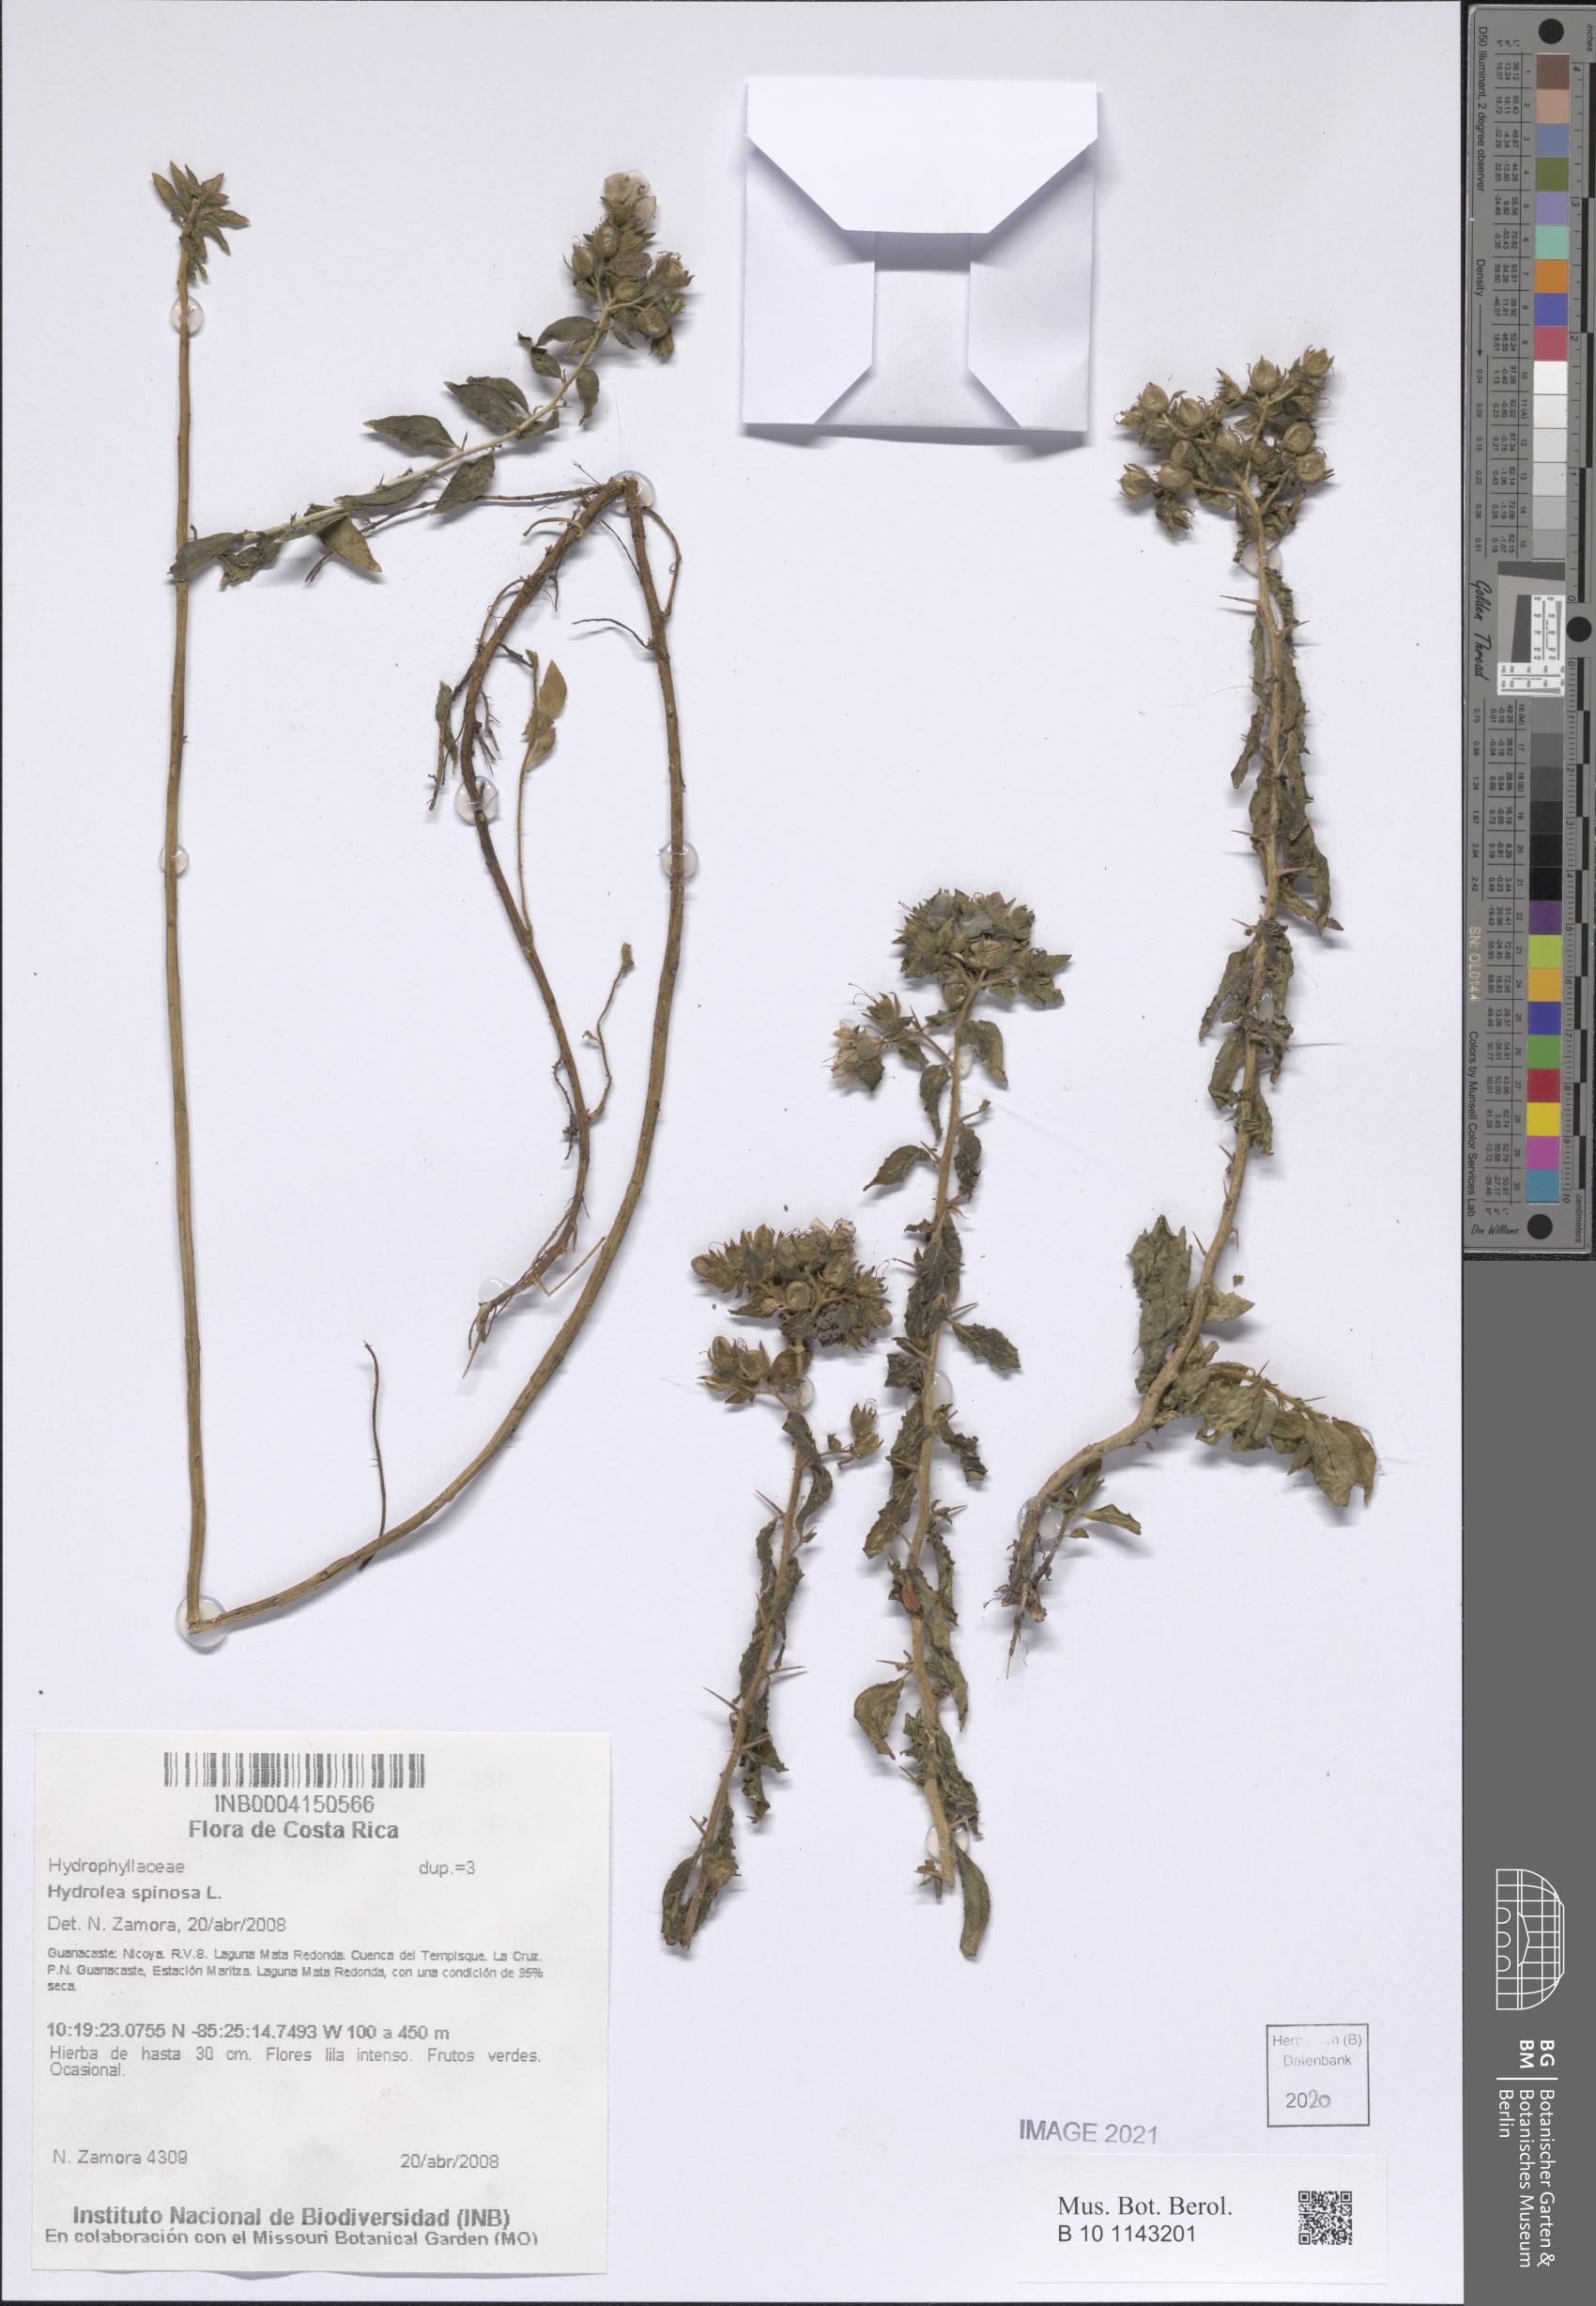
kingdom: Plantae
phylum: Tracheophyta
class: Magnoliopsida
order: Solanales
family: Hydroleaceae
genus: Hydrolea
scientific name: Hydrolea spinosa
